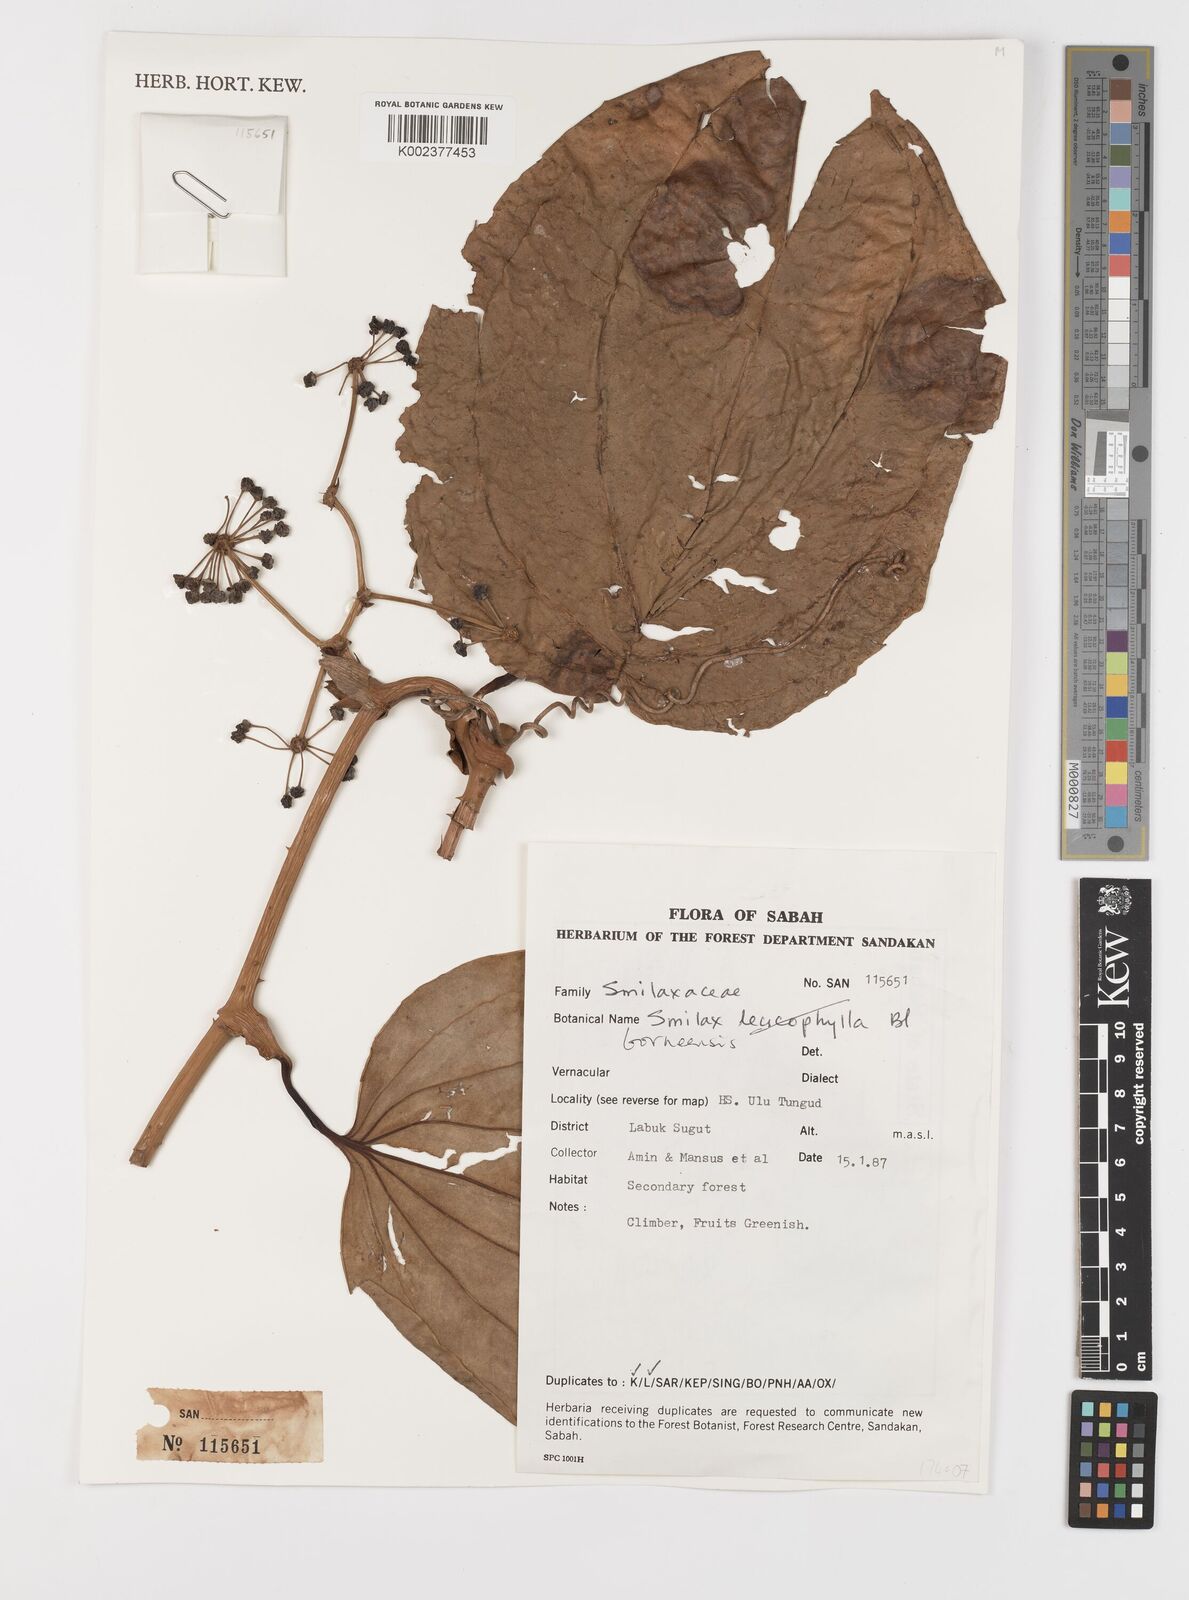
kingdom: Plantae
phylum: Tracheophyta
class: Liliopsida
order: Liliales
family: Smilacaceae
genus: Smilax
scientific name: Smilax borneensis
